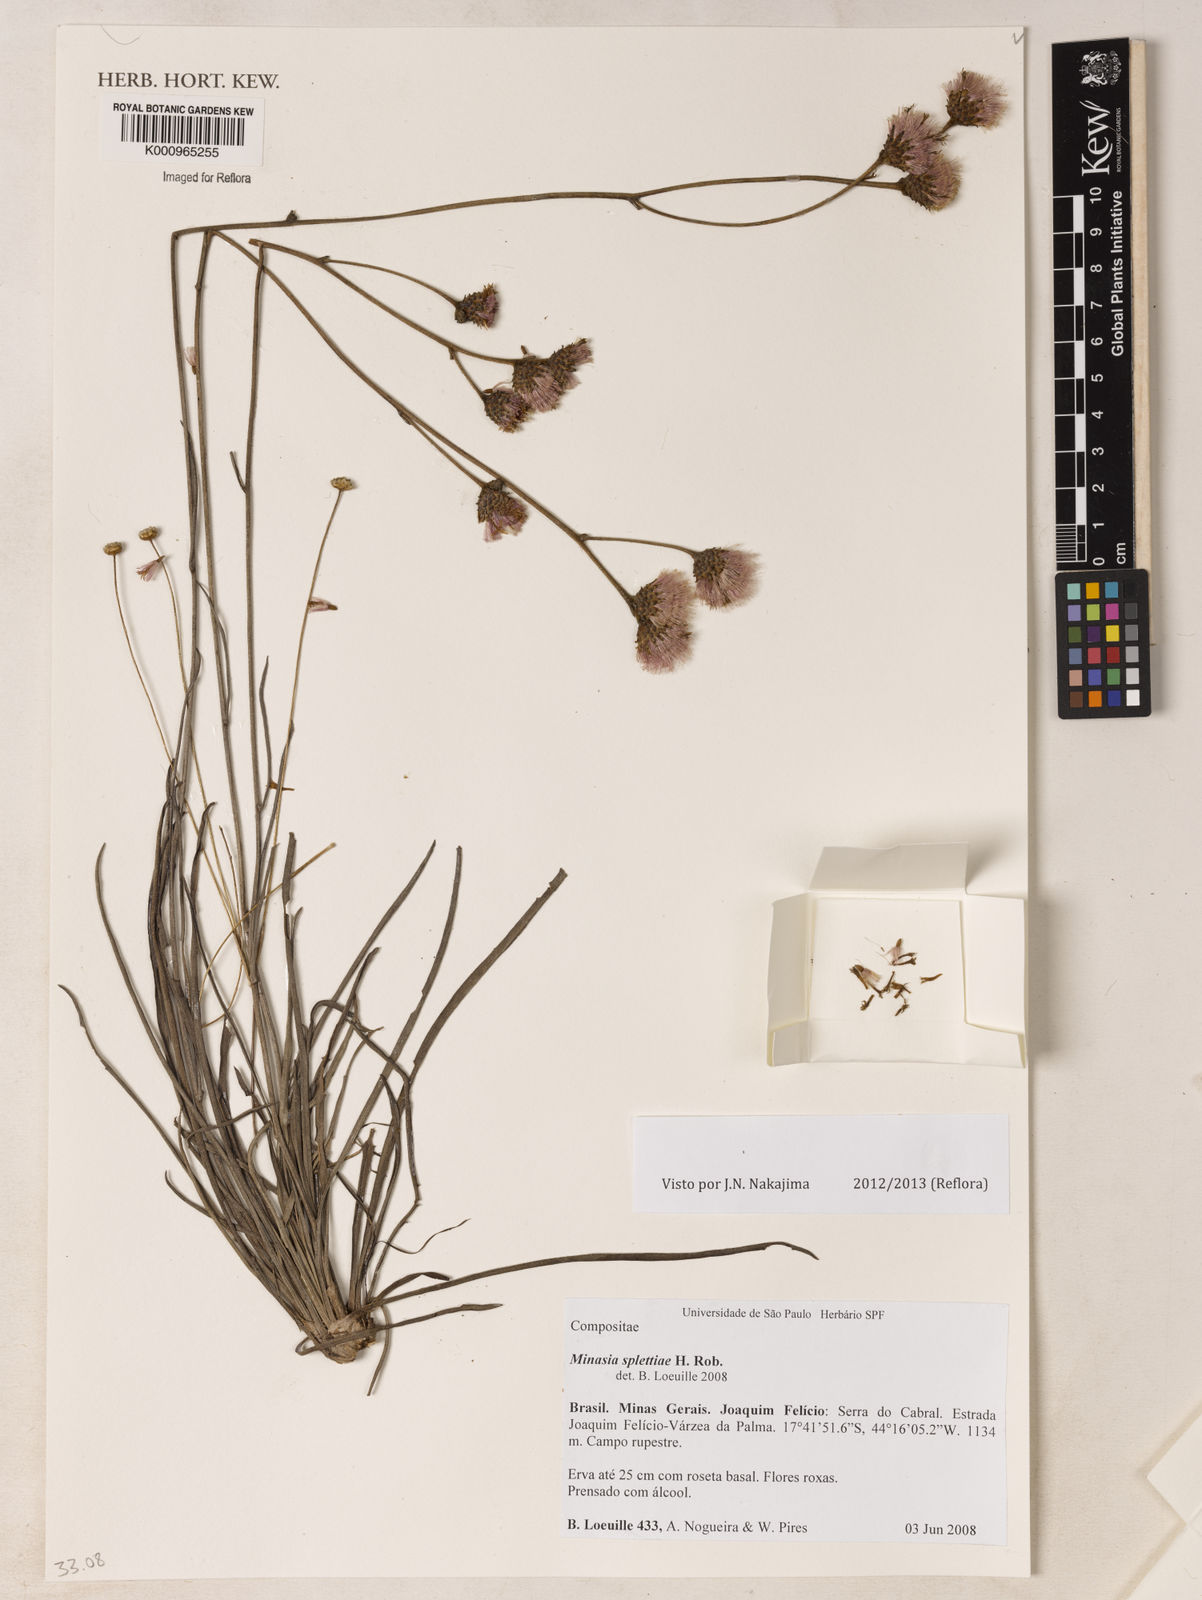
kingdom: Plantae
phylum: Tracheophyta
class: Magnoliopsida
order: Asterales
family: Asteraceae
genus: Minasia
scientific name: Minasia splettiae
